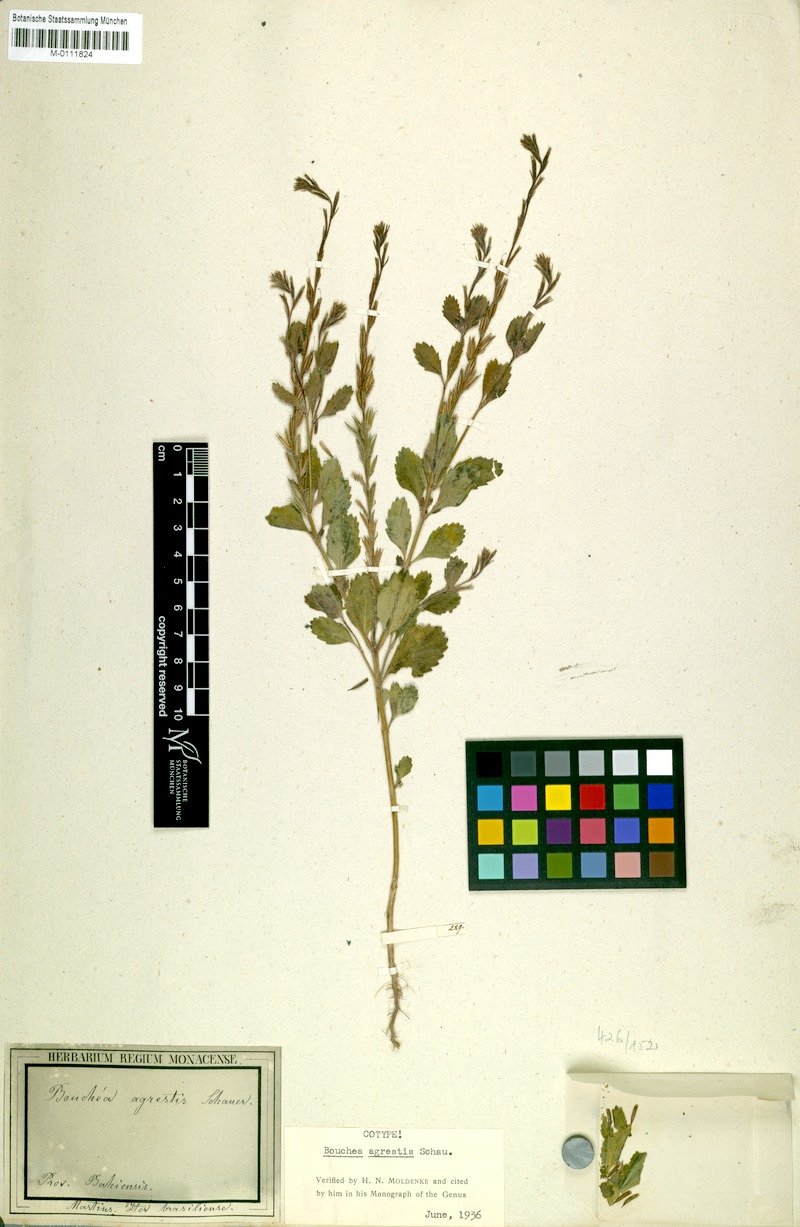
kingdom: Plantae
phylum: Tracheophyta
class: Magnoliopsida
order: Lamiales
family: Verbenaceae
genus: Bouchea
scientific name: Bouchea agrestis
